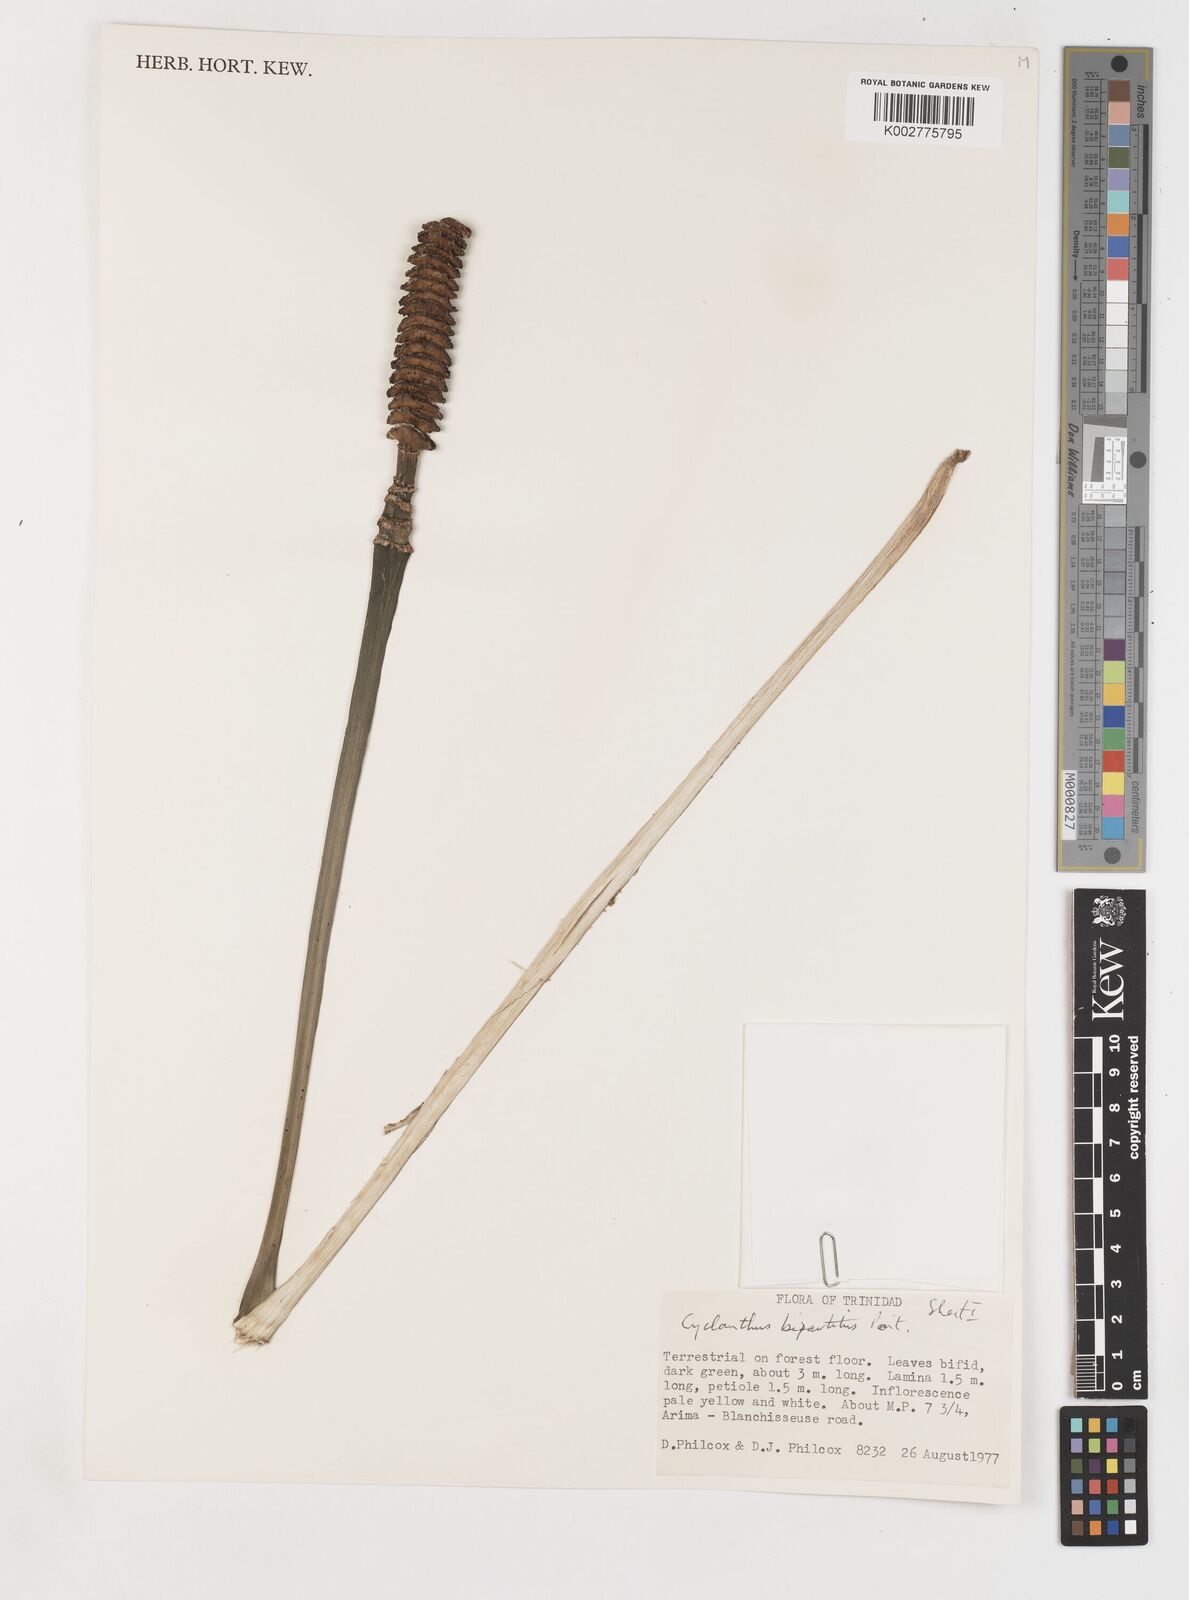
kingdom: Plantae
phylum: Tracheophyta
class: Liliopsida
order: Pandanales
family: Cyclanthaceae
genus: Cyclanthus
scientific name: Cyclanthus bipartitus
